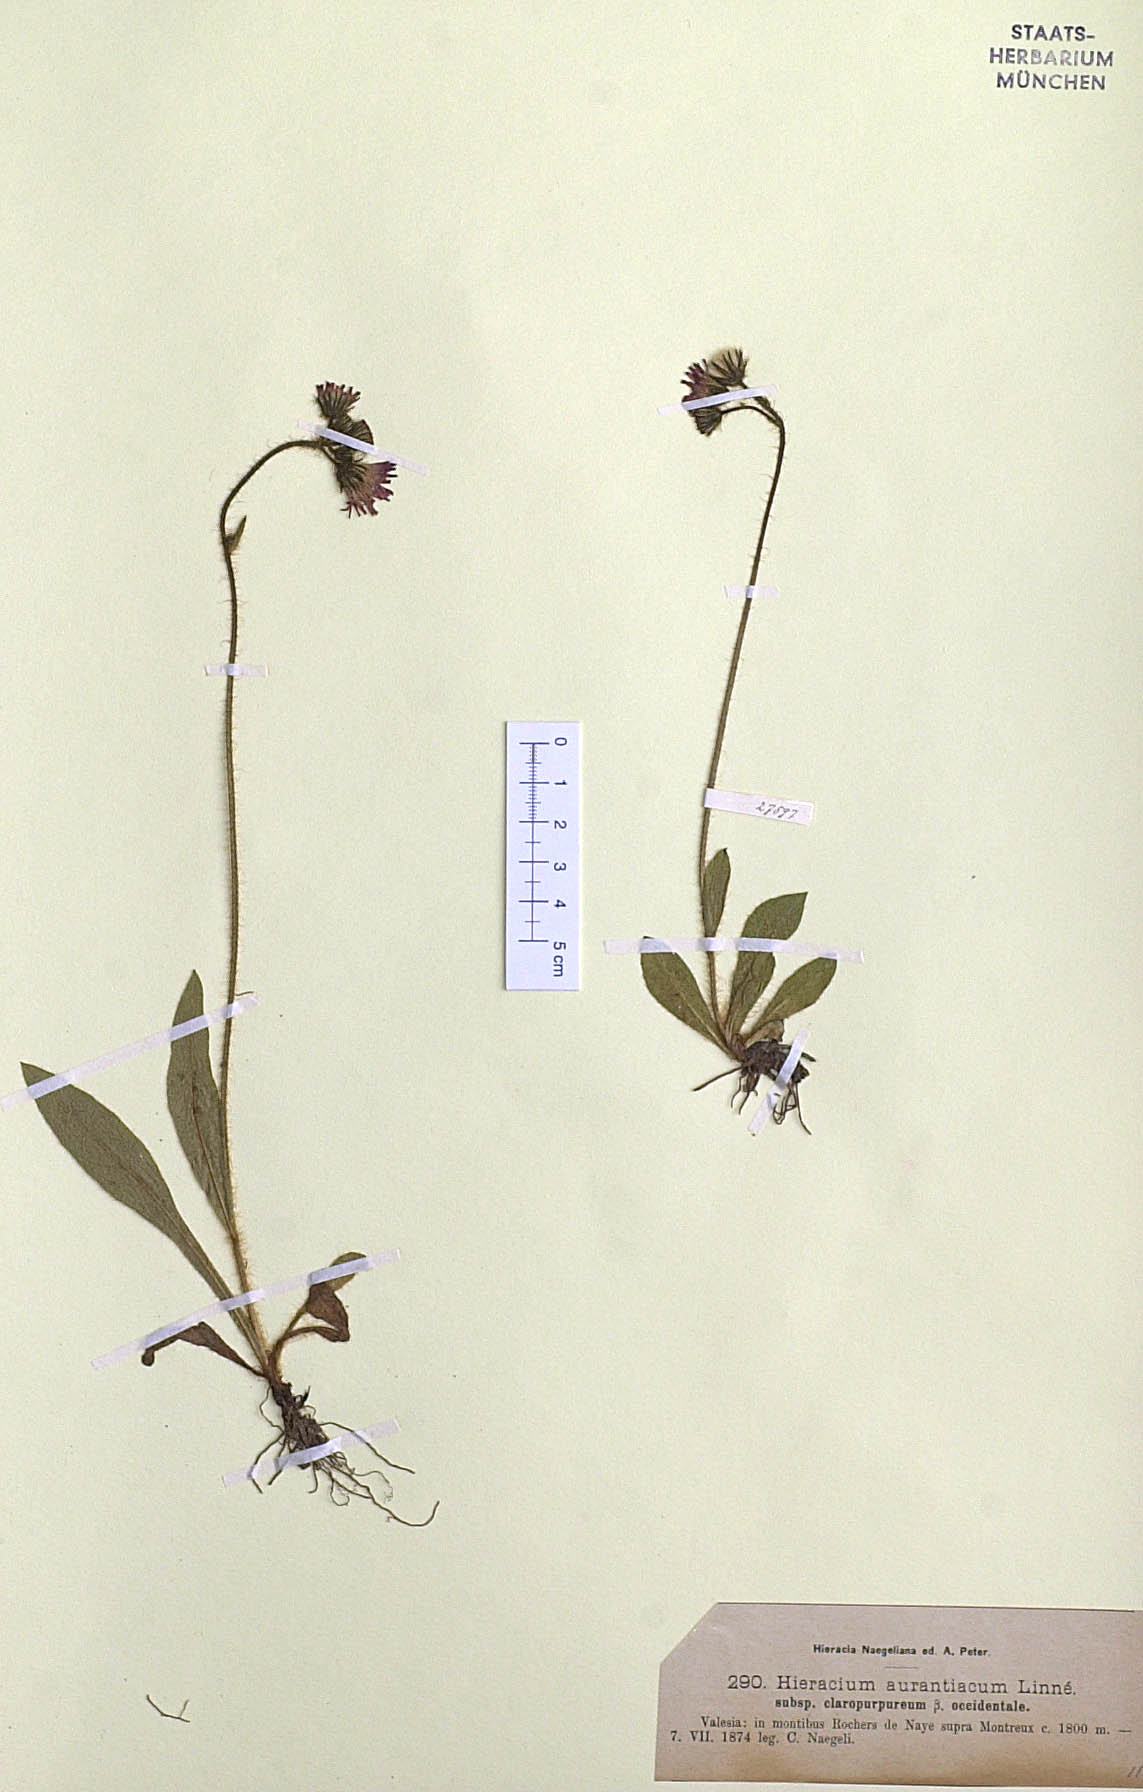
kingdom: Plantae
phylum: Tracheophyta
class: Magnoliopsida
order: Asterales
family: Asteraceae
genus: Pilosella
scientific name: Pilosella aurantiaca
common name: Fox-and-cubs
